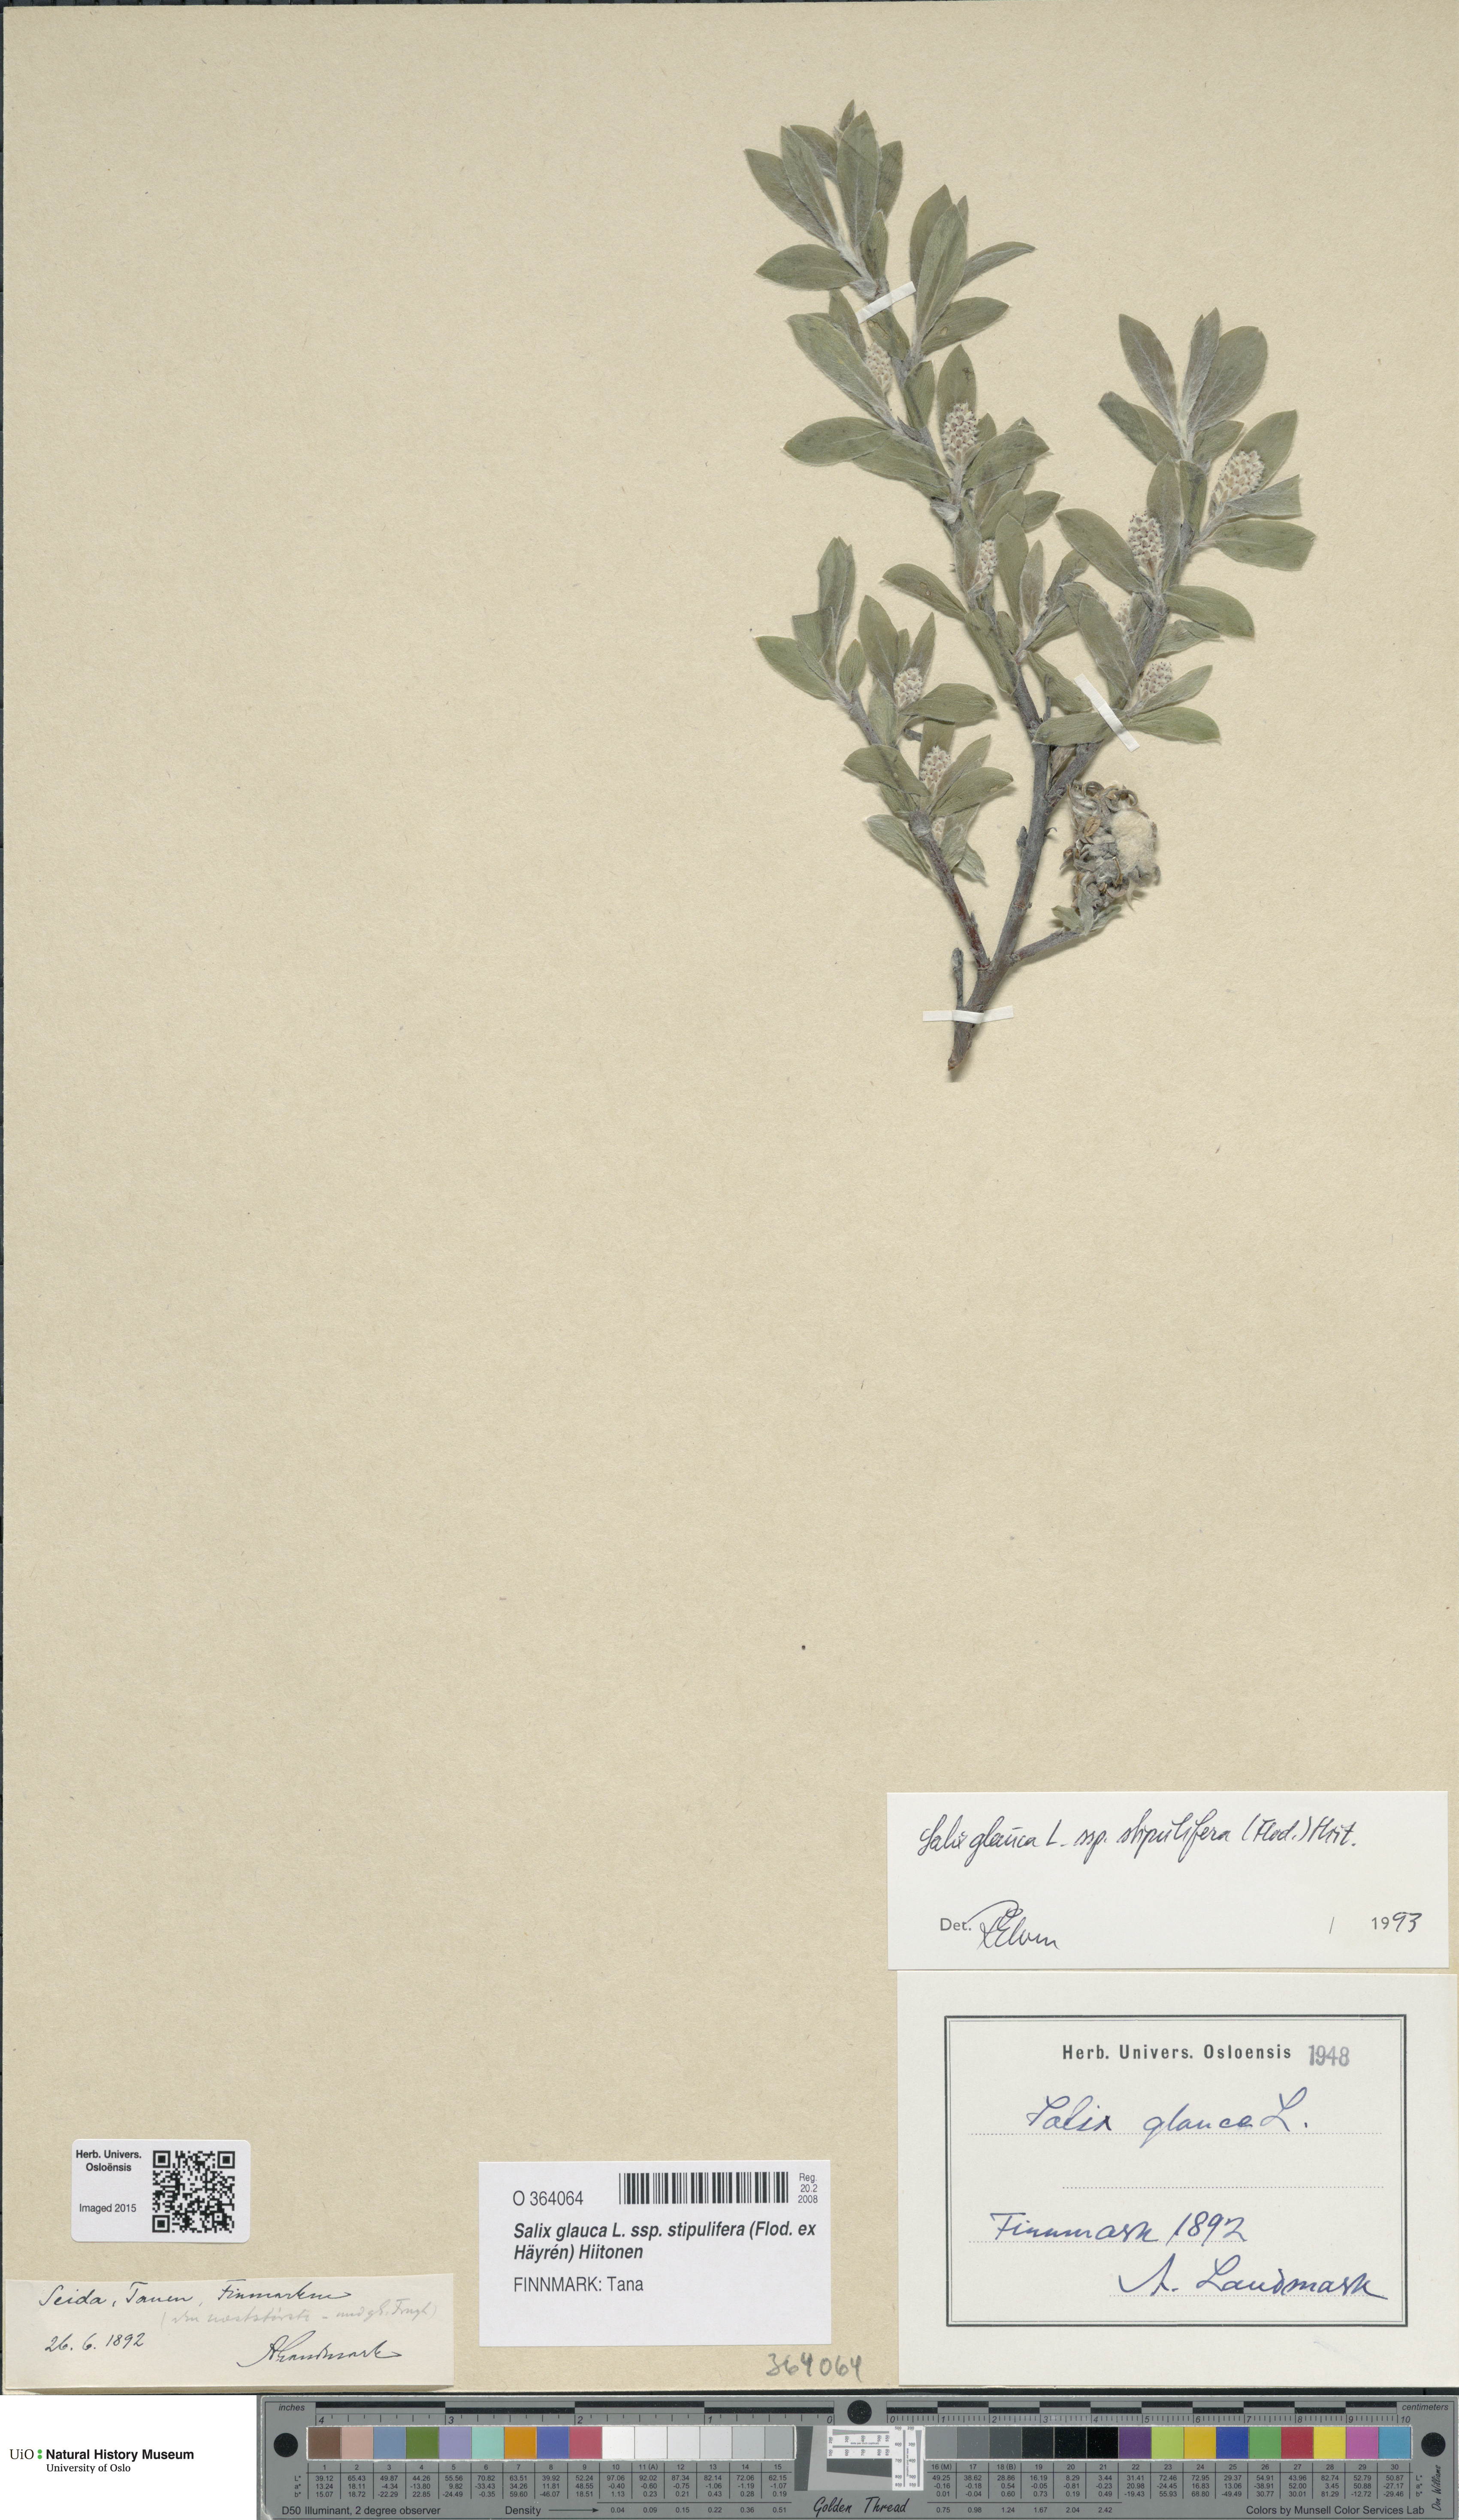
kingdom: Plantae
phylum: Tracheophyta
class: Magnoliopsida
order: Malpighiales
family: Salicaceae
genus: Salix
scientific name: Salix glauca
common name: Glaucous willow
